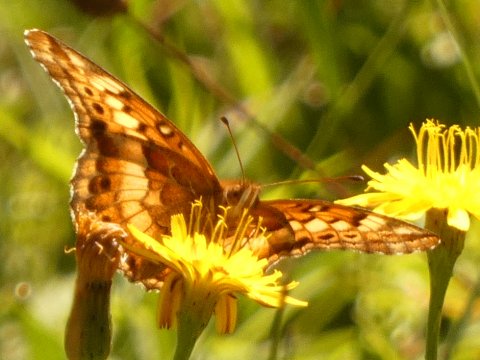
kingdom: Animalia
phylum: Arthropoda
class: Insecta
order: Lepidoptera
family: Nymphalidae
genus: Euptoieta
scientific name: Euptoieta claudia
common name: Variegated Fritillary
